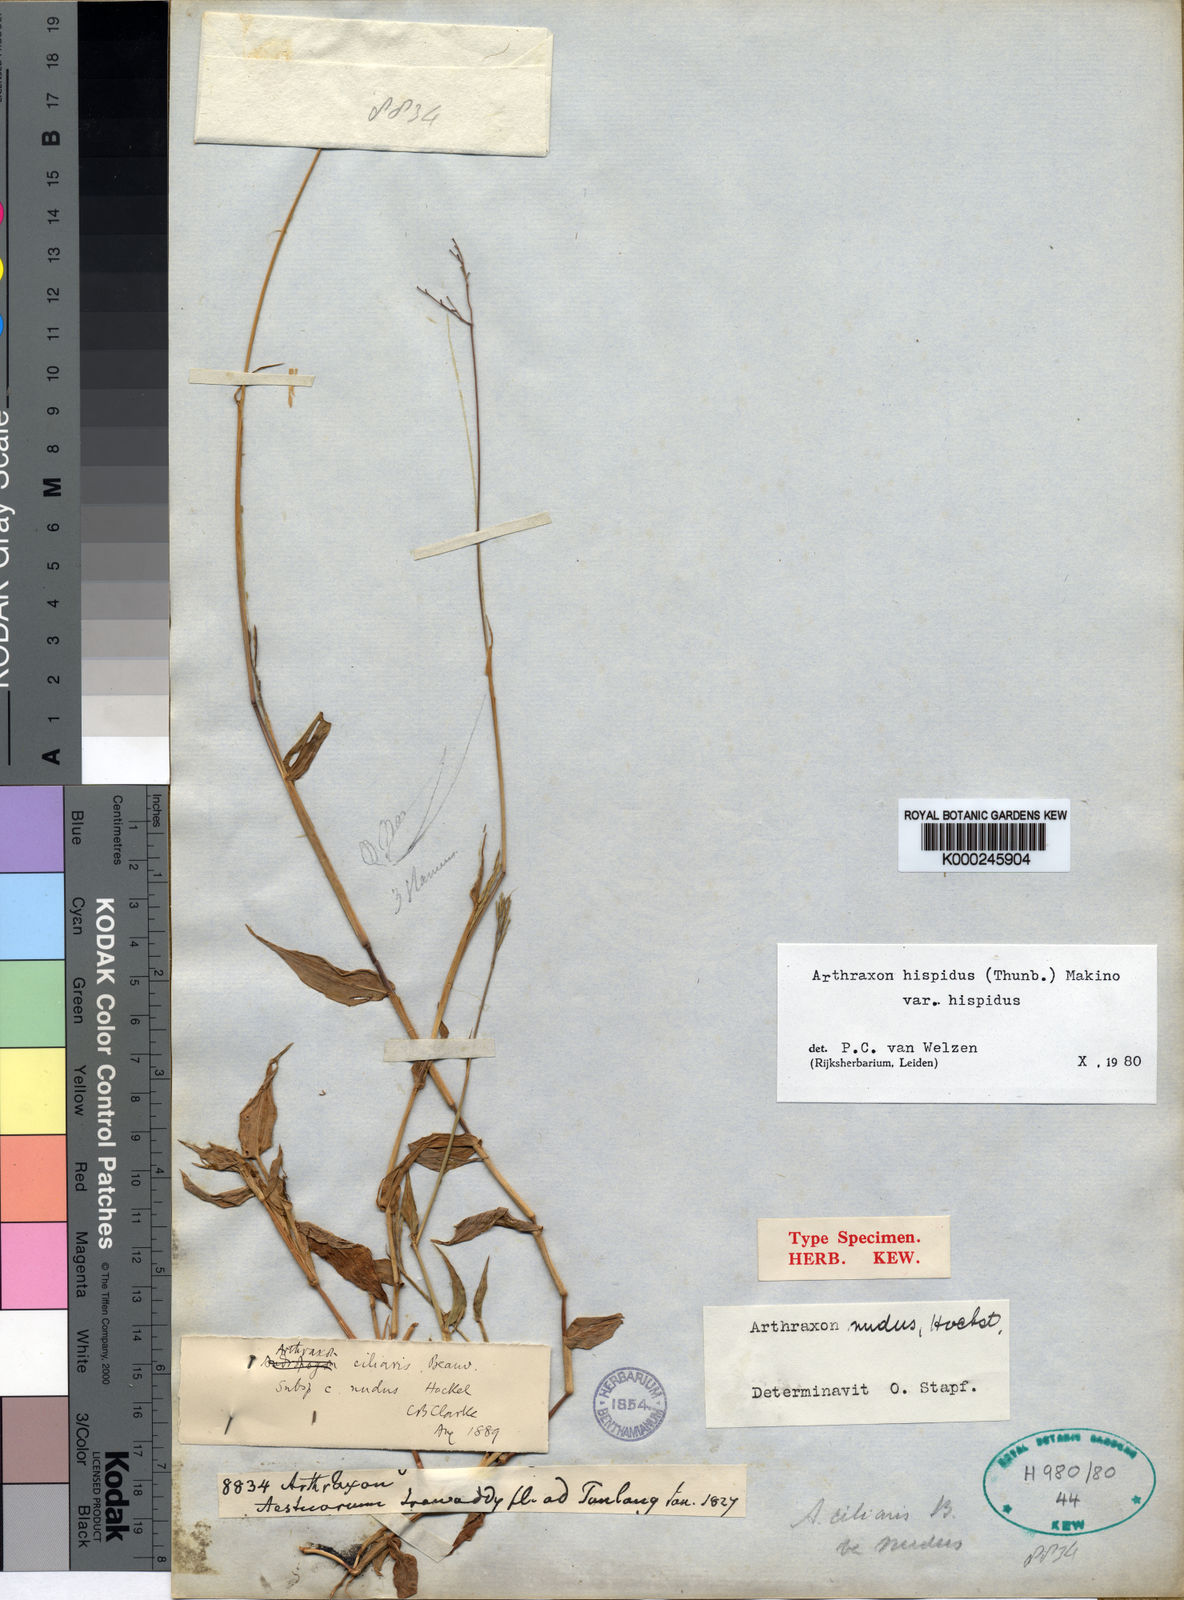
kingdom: Plantae
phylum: Tracheophyta
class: Liliopsida
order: Poales
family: Poaceae
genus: Arthraxon
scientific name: Arthraxon nudus
